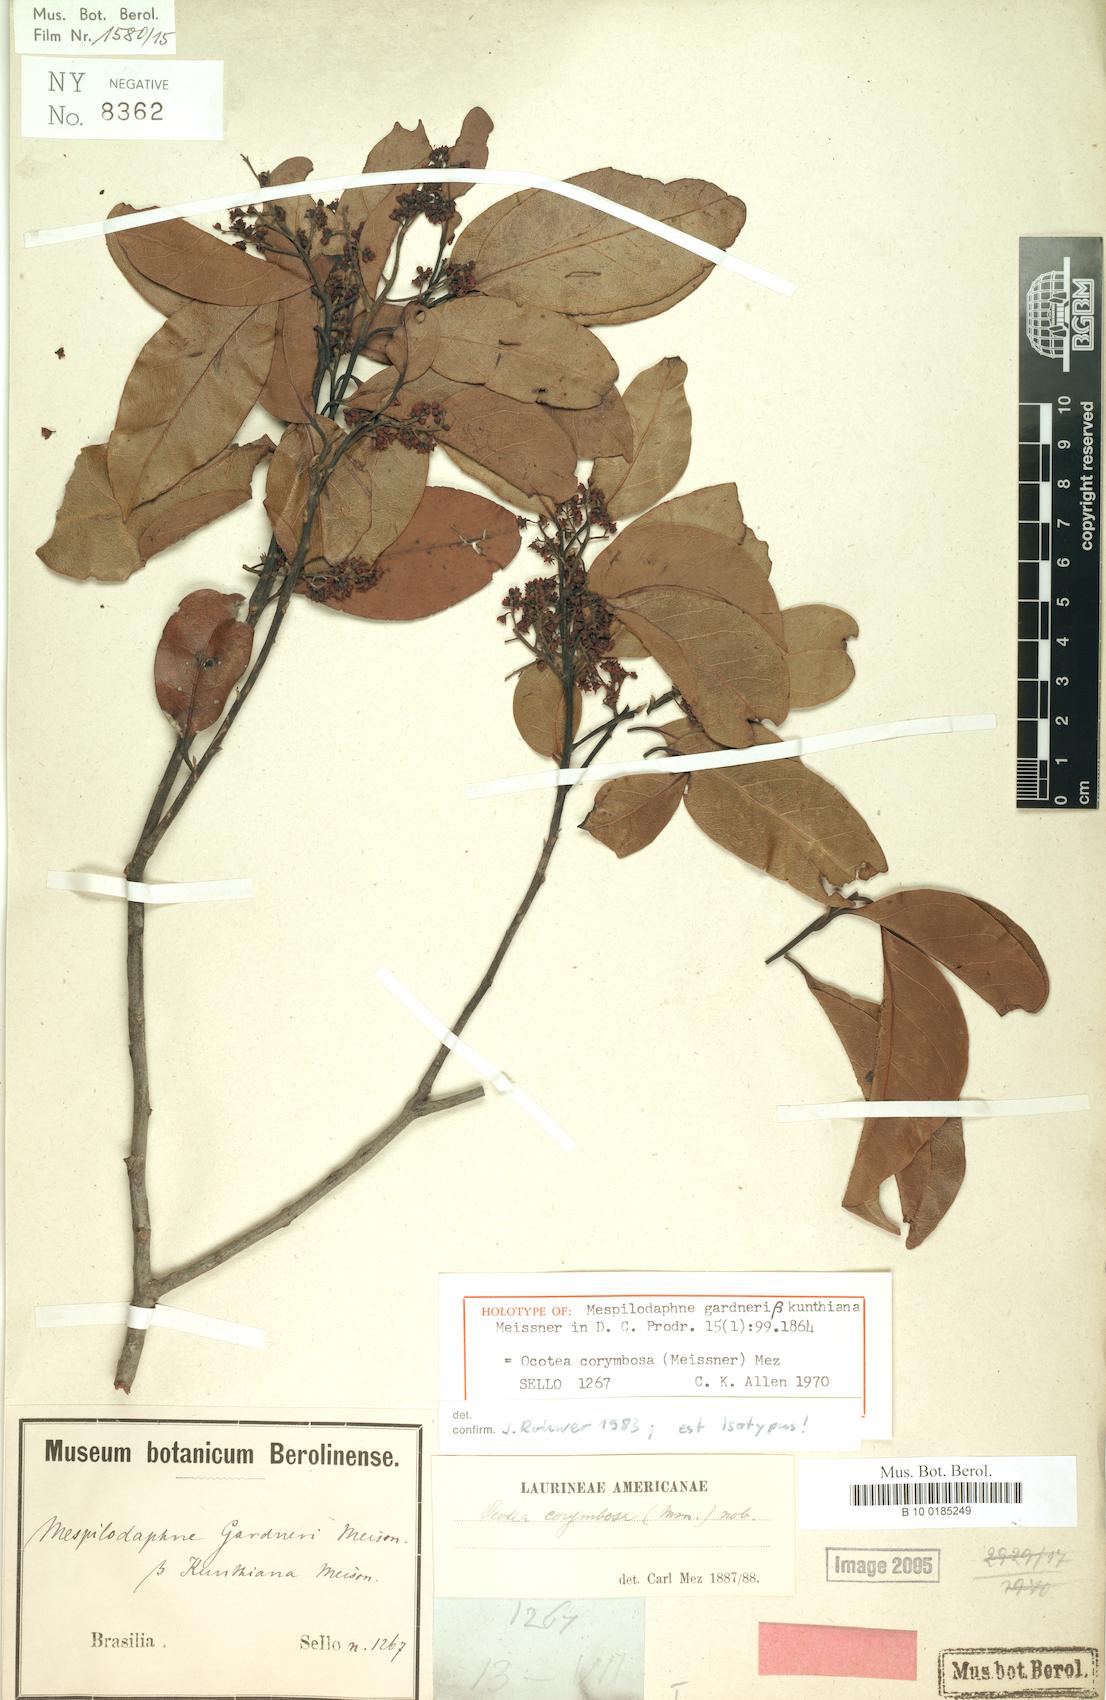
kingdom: Plantae
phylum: Tracheophyta
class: Magnoliopsida
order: Laurales
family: Lauraceae
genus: Mespilodaphne
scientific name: Mespilodaphne corymbosa
